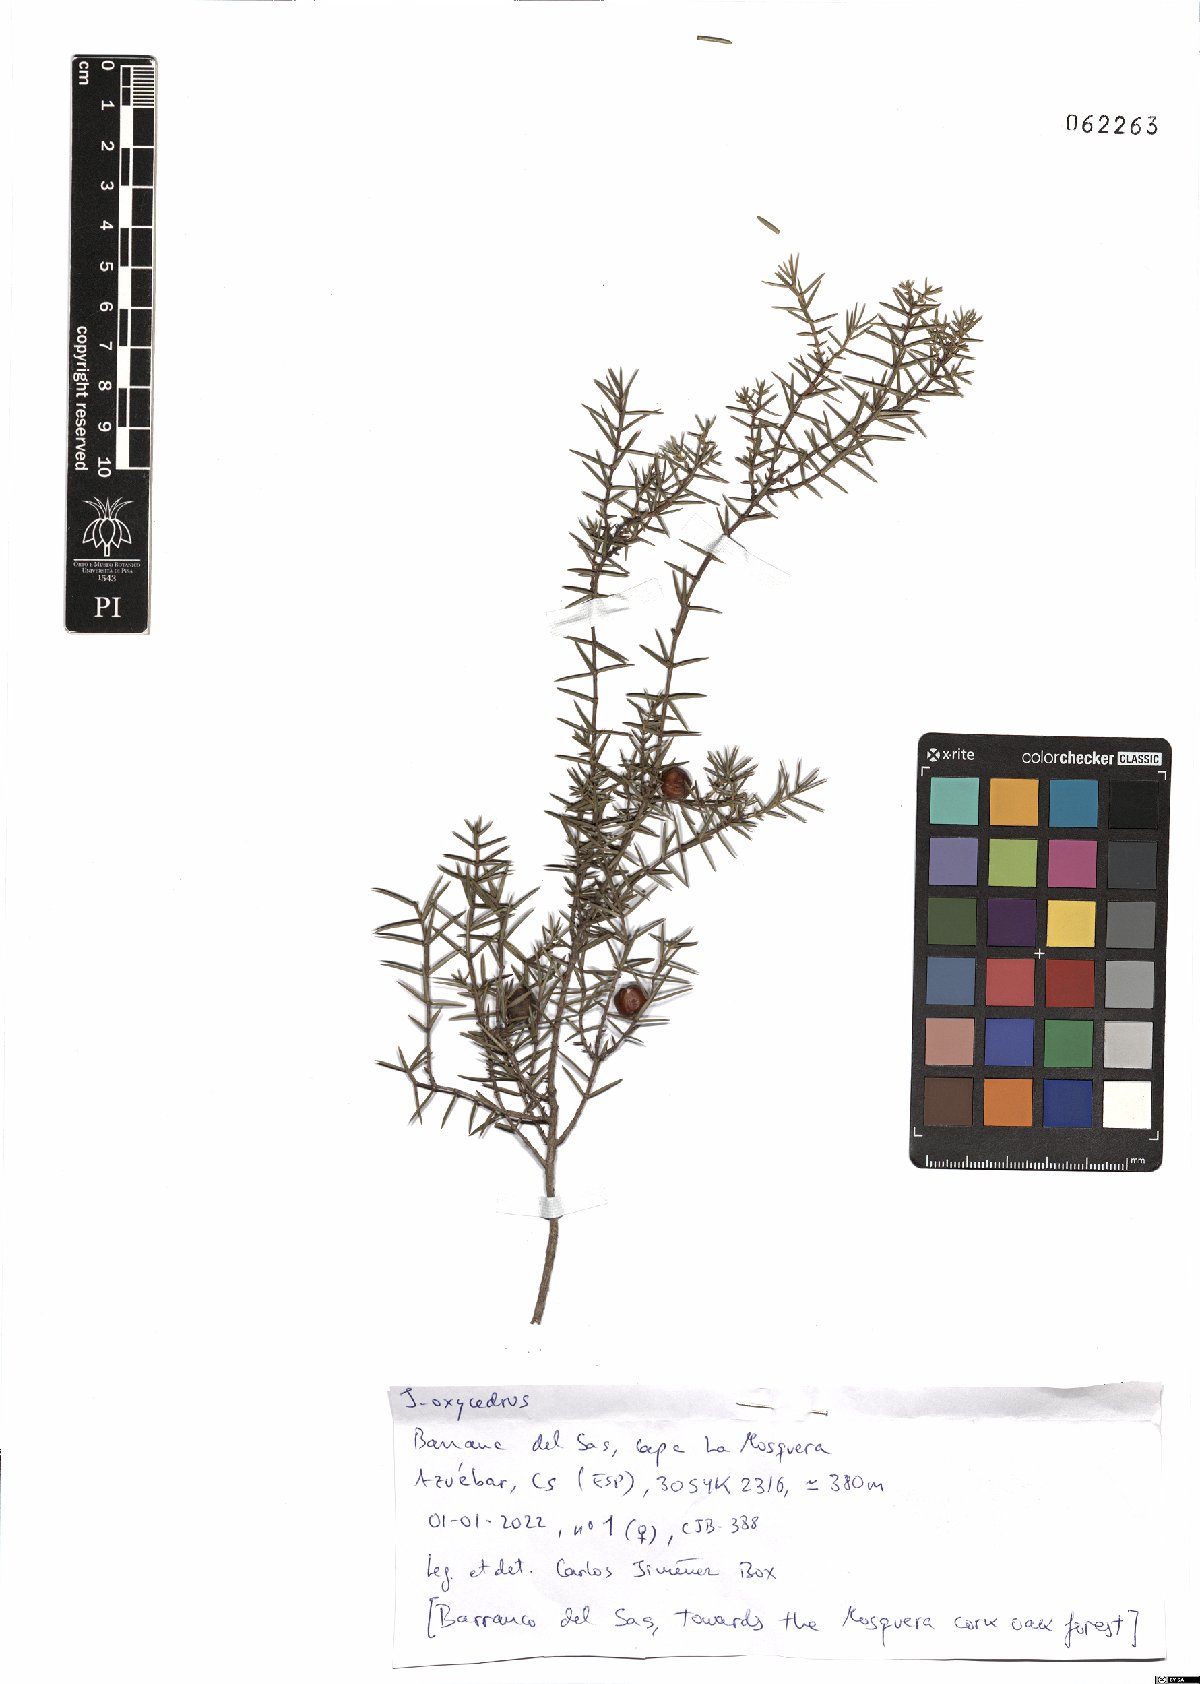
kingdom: Plantae
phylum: Tracheophyta
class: Pinopsida
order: Pinales
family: Cupressaceae
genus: Juniperus
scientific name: Juniperus oxycedrus
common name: Prickly juniper
